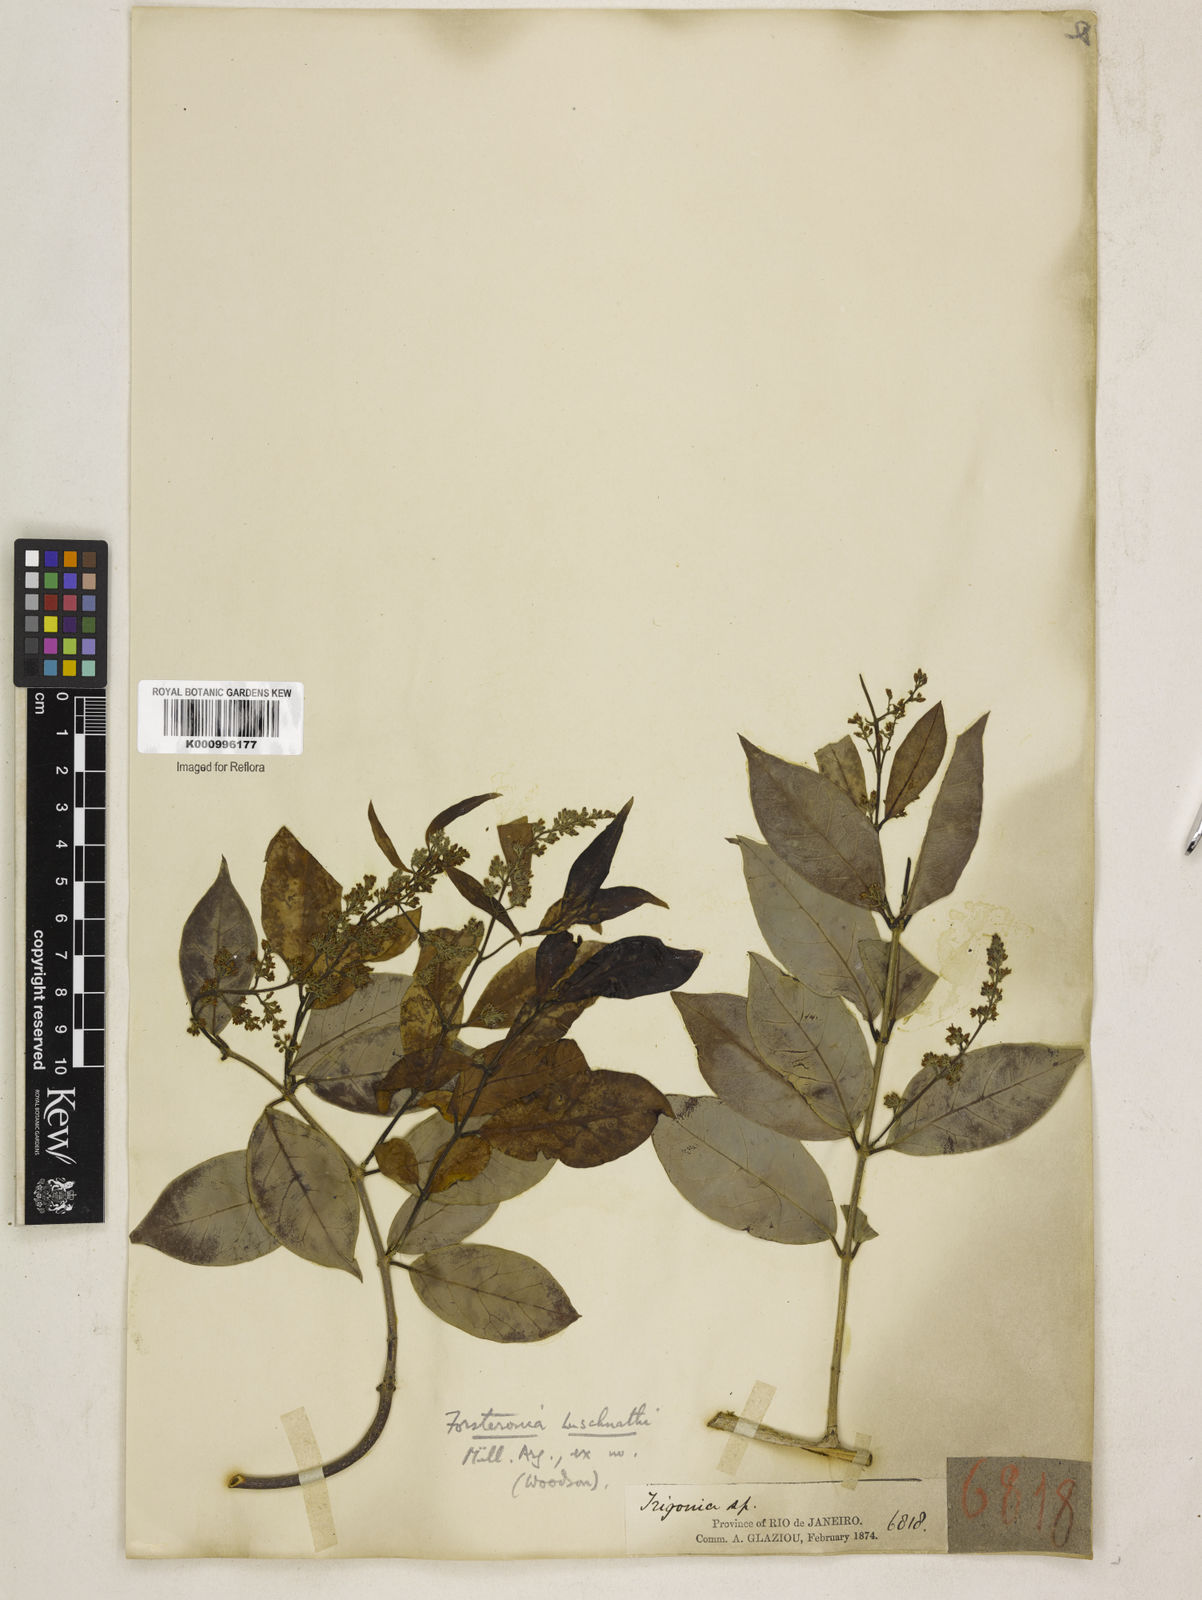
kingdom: Plantae
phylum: Tracheophyta
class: Magnoliopsida
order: Gentianales
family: Apocynaceae
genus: Forsteronia
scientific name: Forsteronia
